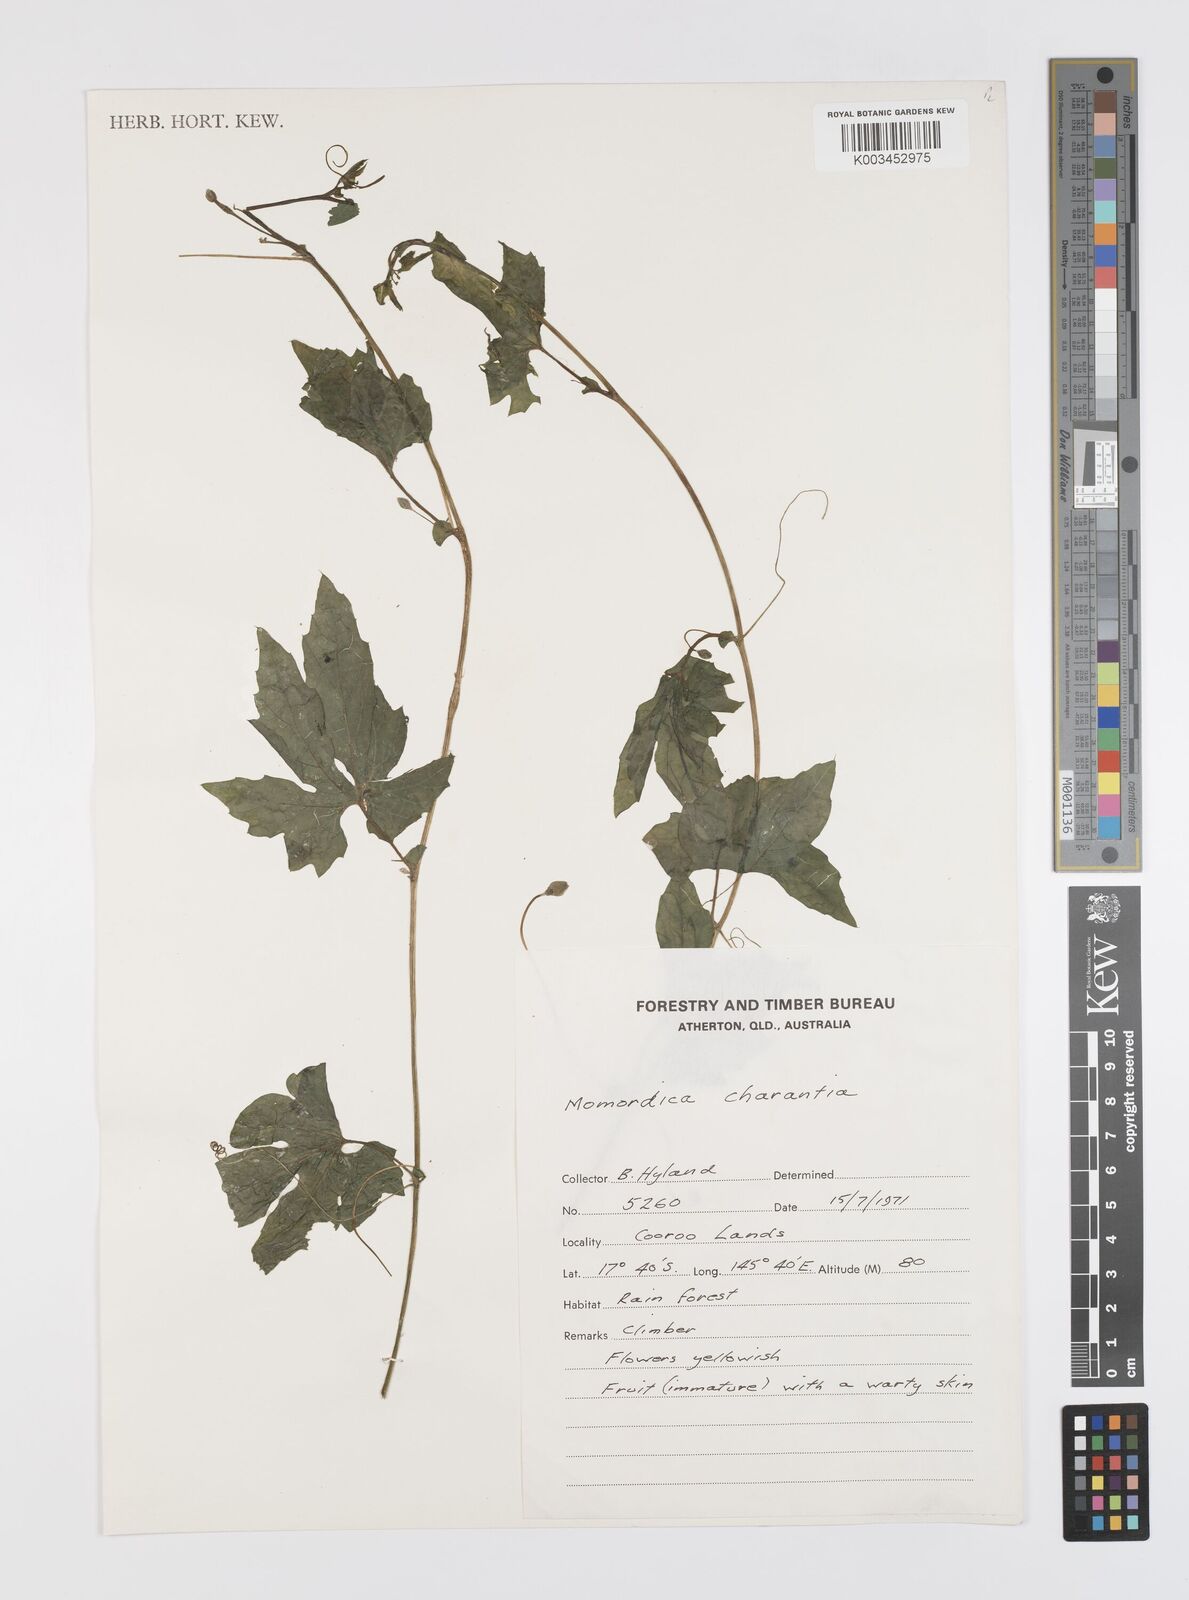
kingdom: Plantae
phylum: Tracheophyta
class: Magnoliopsida
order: Cucurbitales
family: Cucurbitaceae
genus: Momordica
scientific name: Momordica charantia
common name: Balsampear
